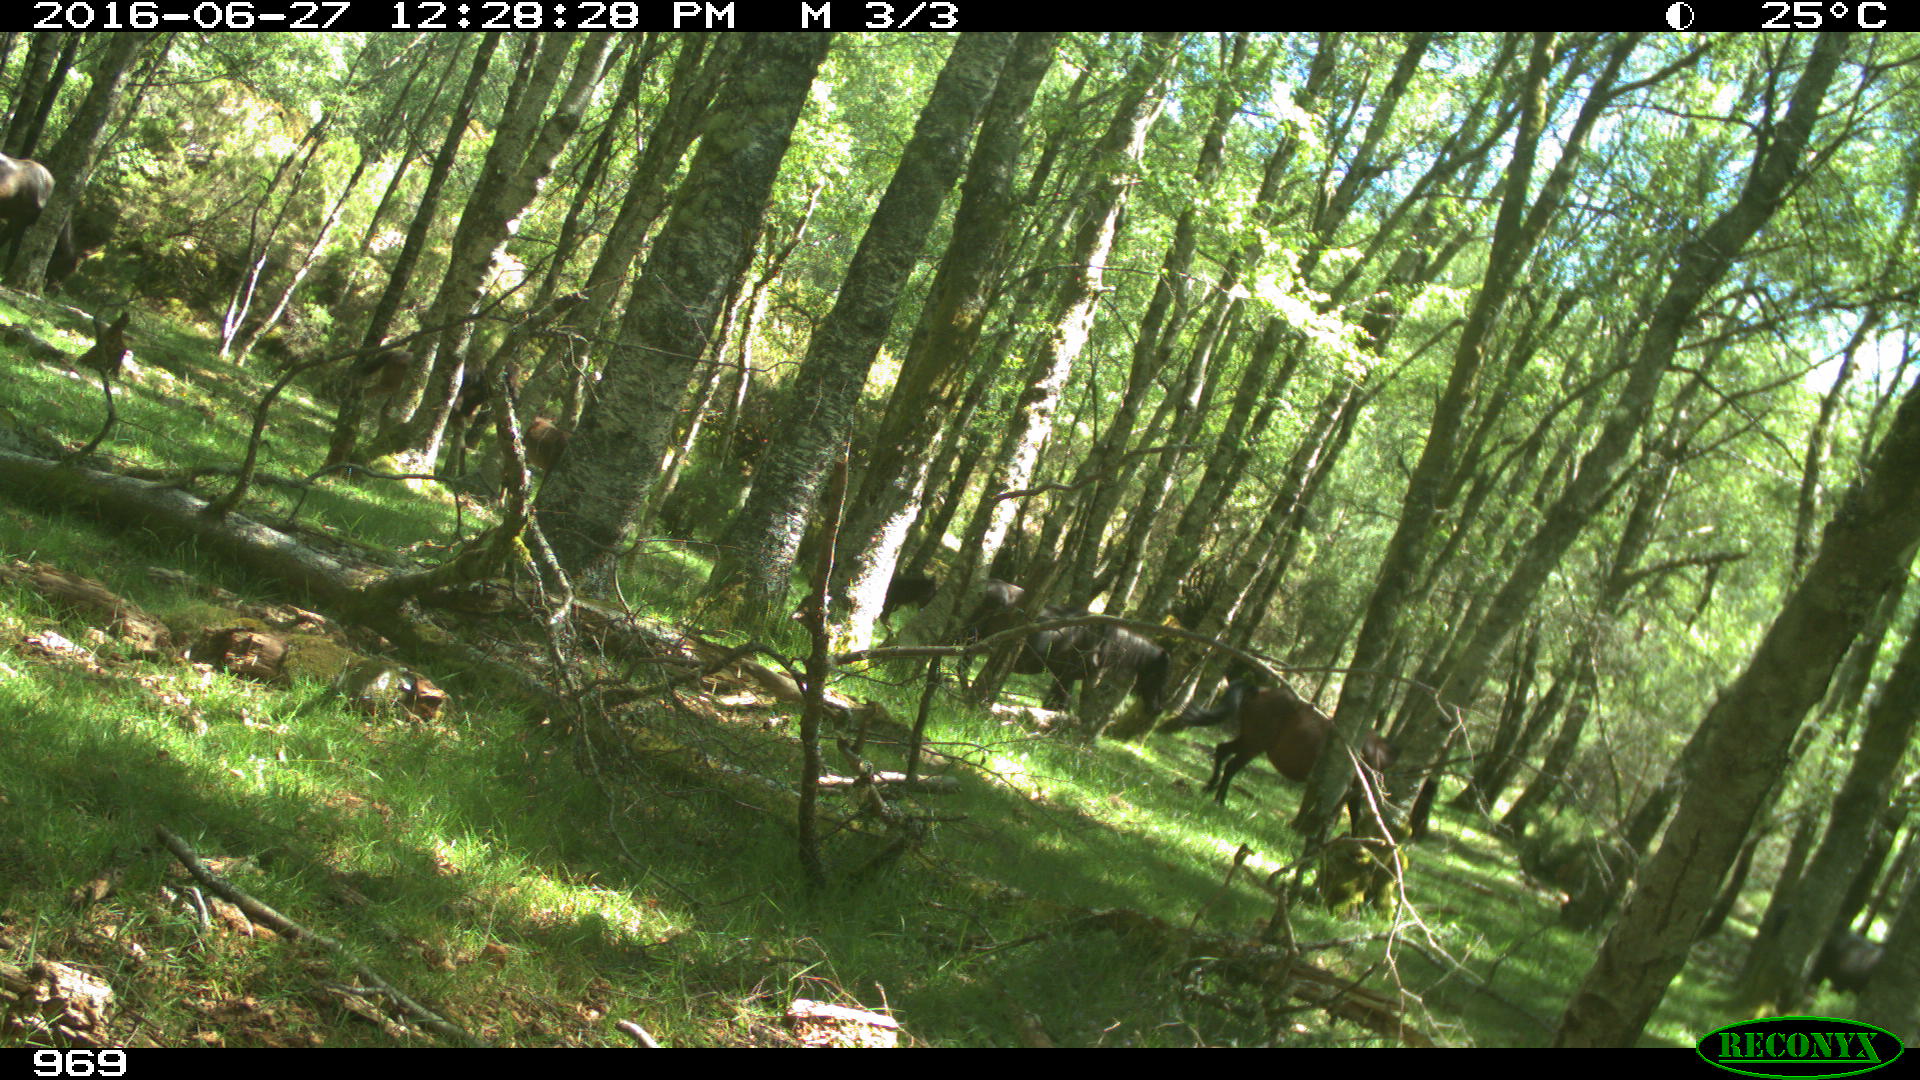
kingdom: Animalia
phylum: Chordata
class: Mammalia
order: Perissodactyla
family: Equidae
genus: Equus
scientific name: Equus caballus
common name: Horse
